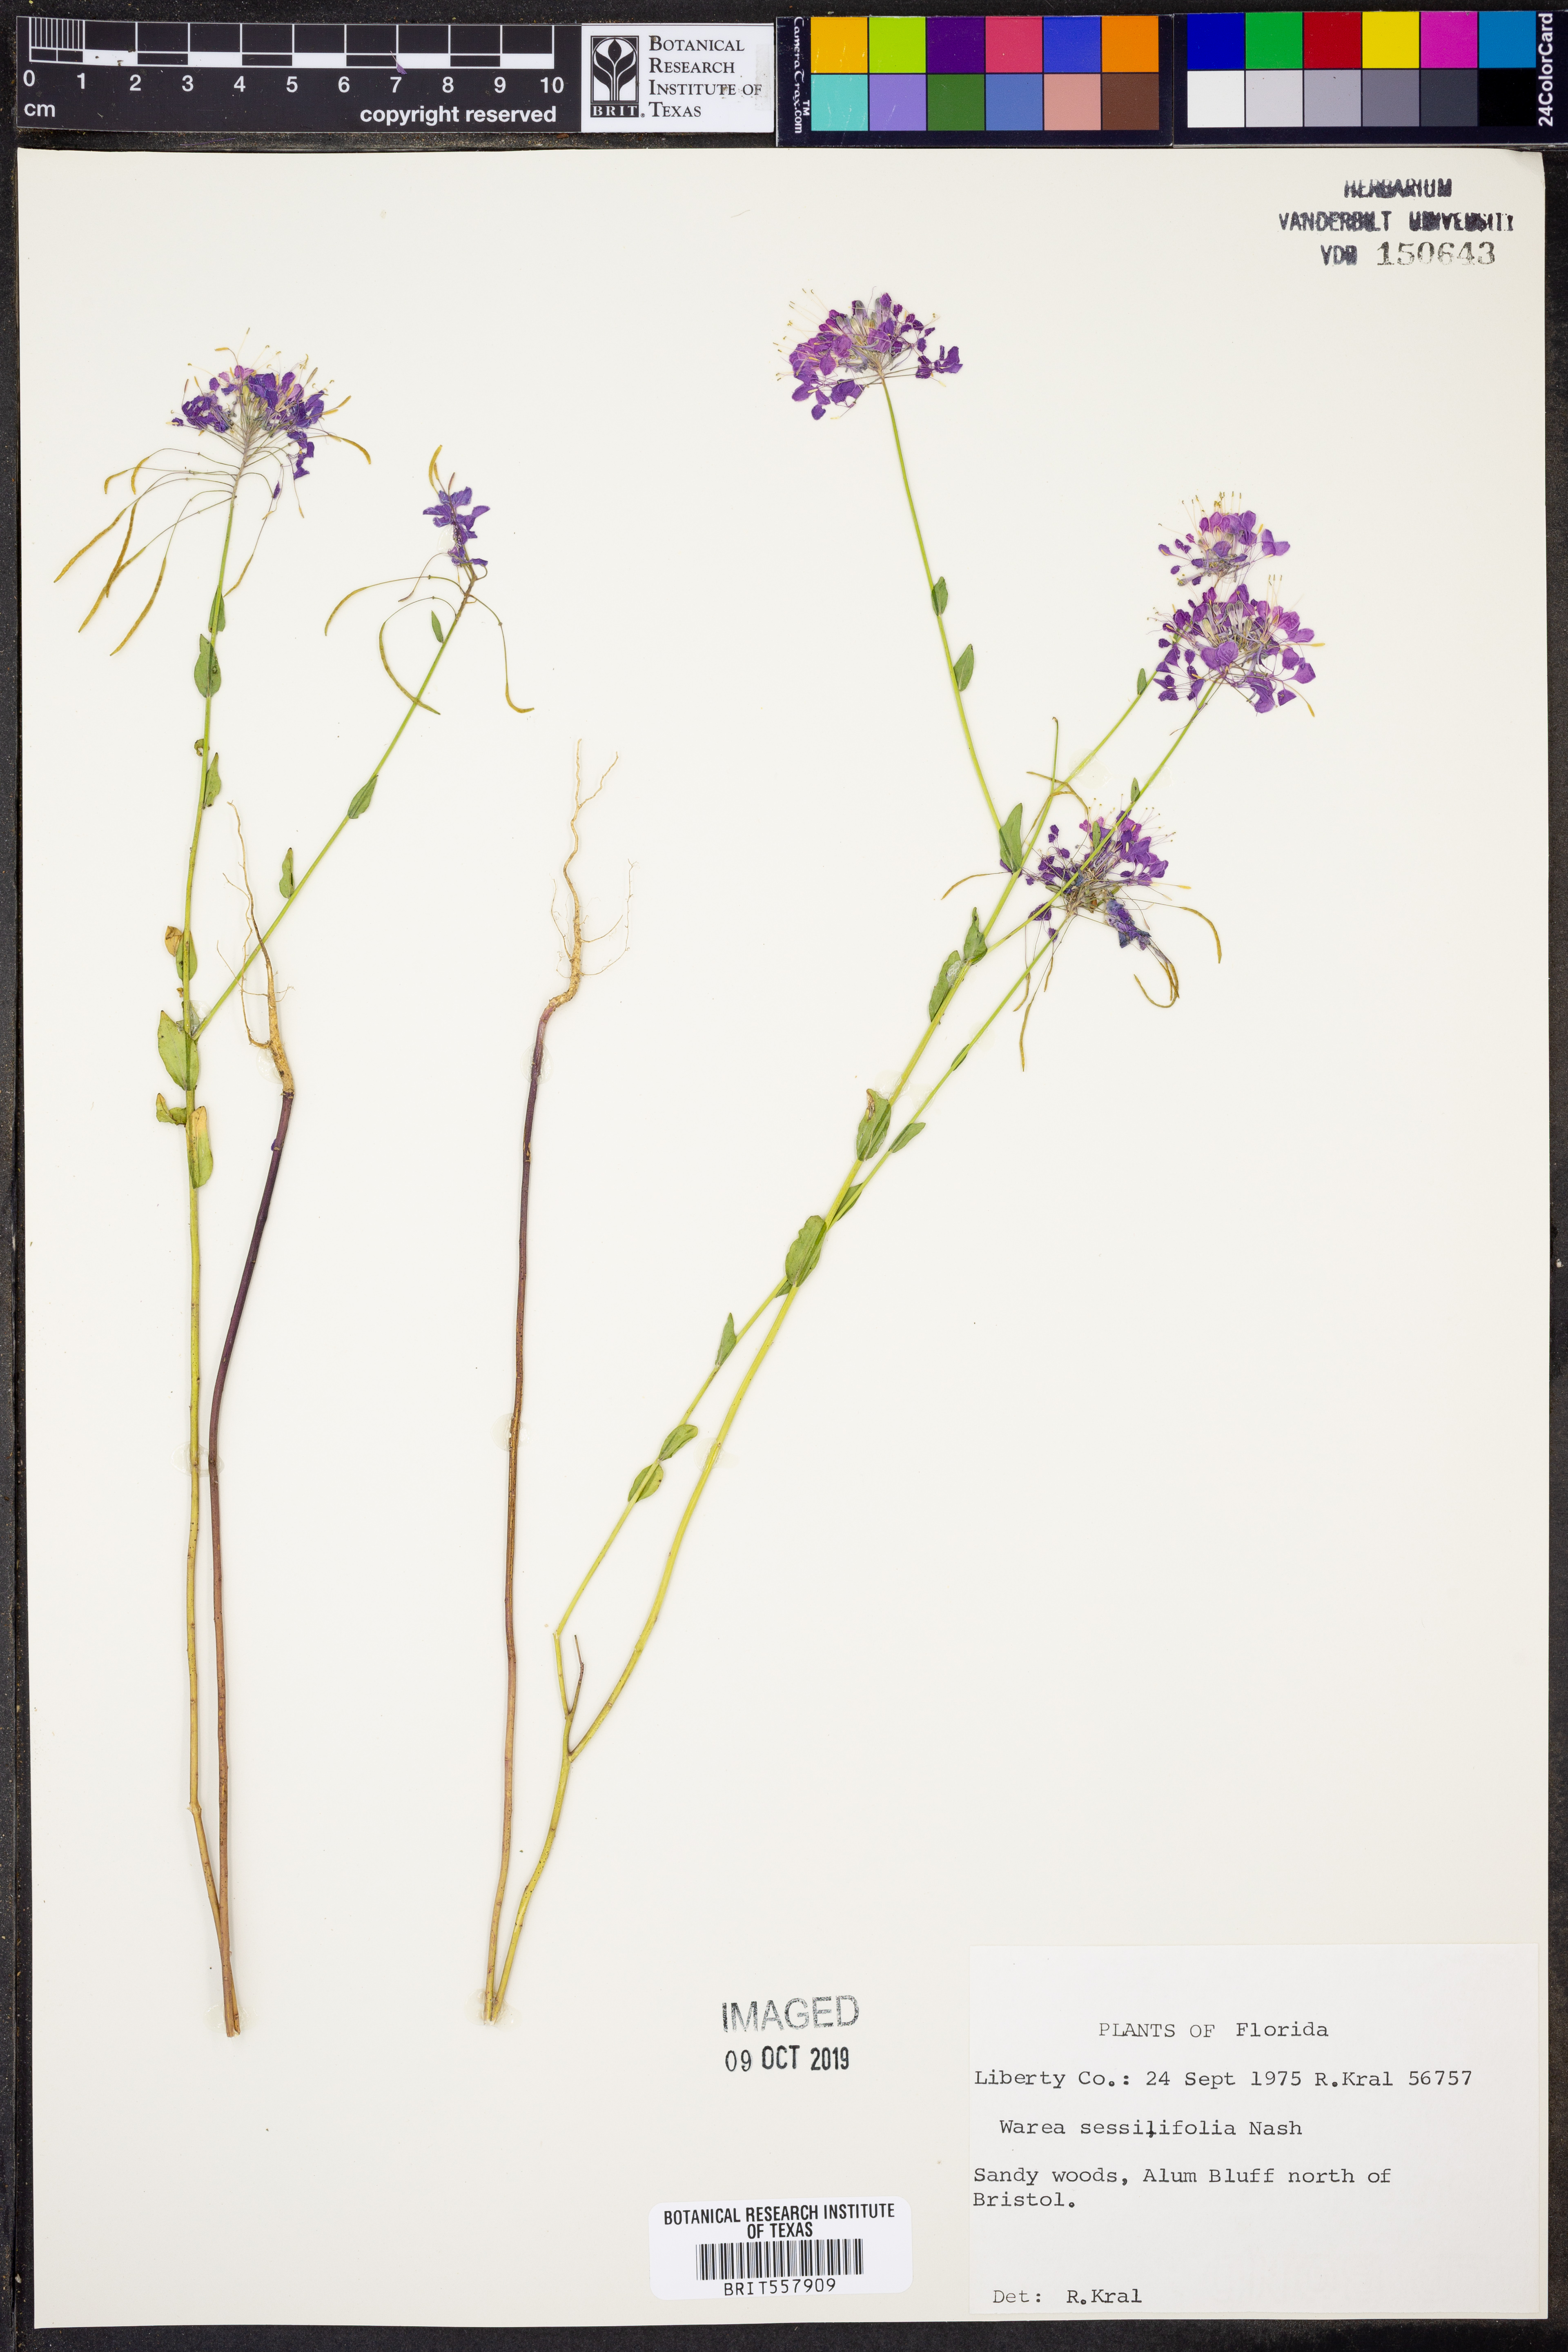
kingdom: Plantae
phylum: Tracheophyta
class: Magnoliopsida
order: Brassicales
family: Brassicaceae
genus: Warea
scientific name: Warea sessilifolia
